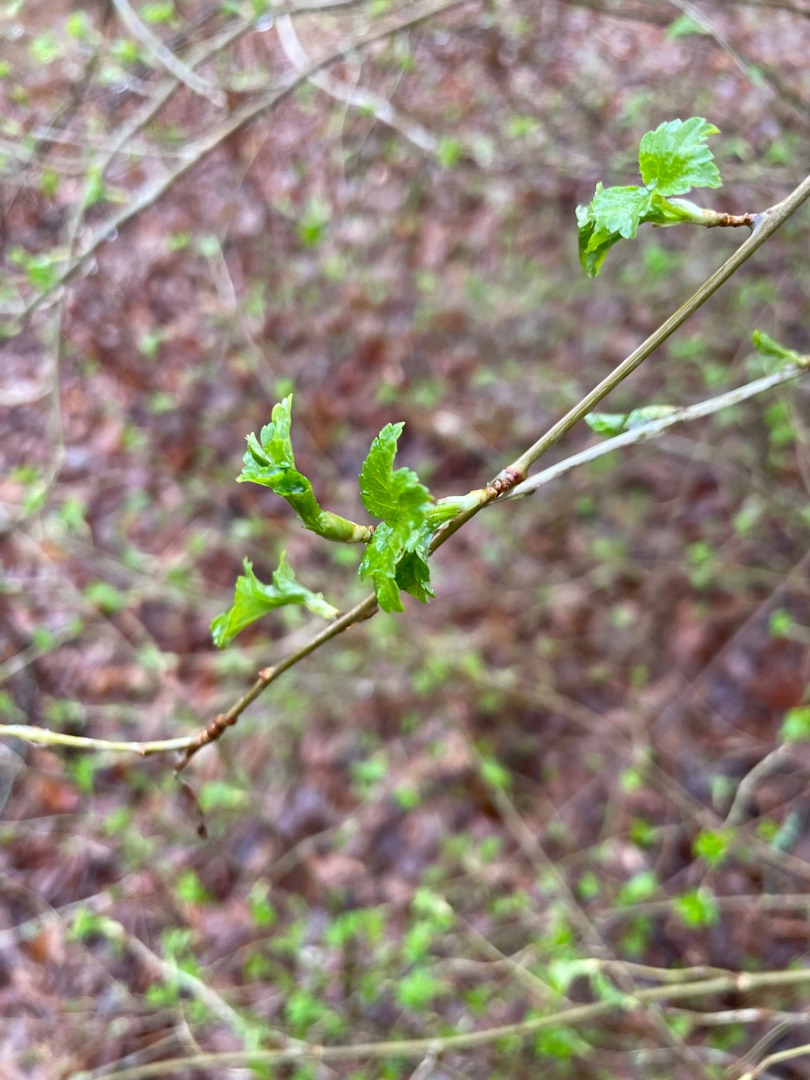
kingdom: Plantae
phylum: Tracheophyta
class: Magnoliopsida
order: Saxifragales
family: Grossulariaceae
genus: Ribes
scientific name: Ribes alpinum
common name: Fjeld-ribs
